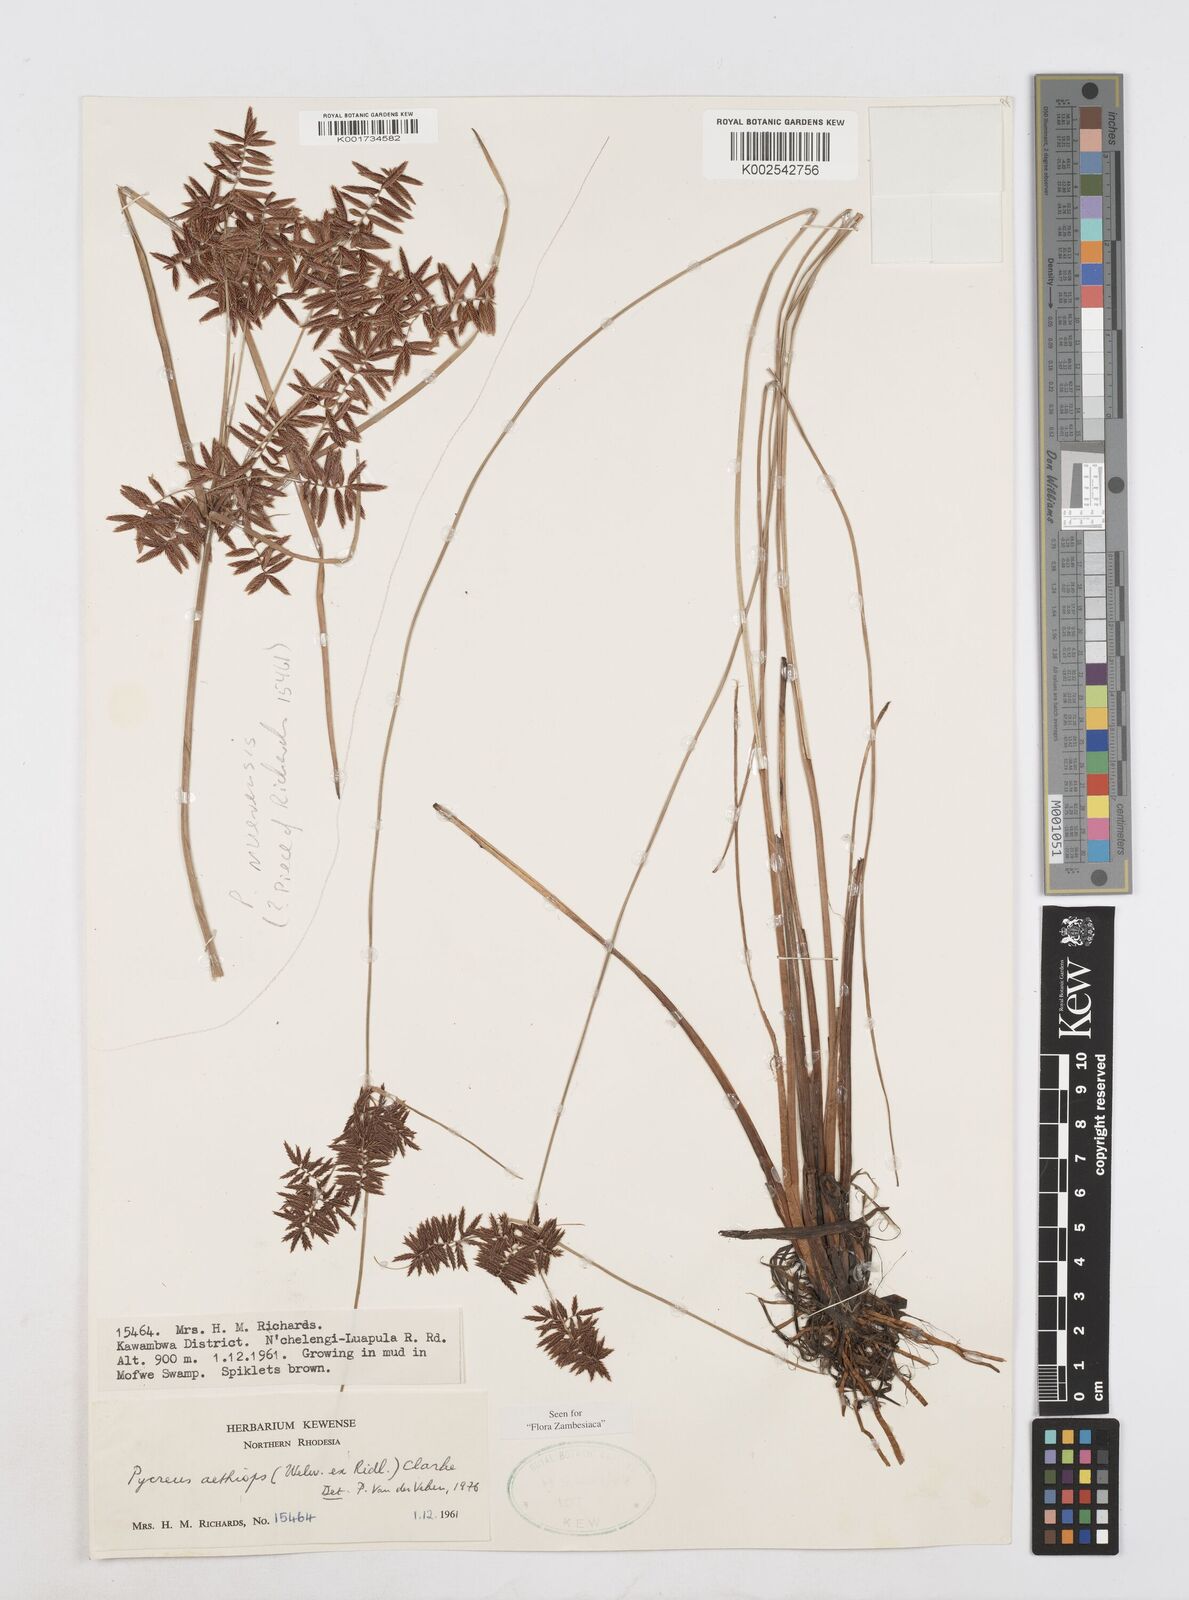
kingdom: Plantae
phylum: Tracheophyta
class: Liliopsida
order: Poales
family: Cyperaceae
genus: Cyperus
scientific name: Cyperus aethiops
